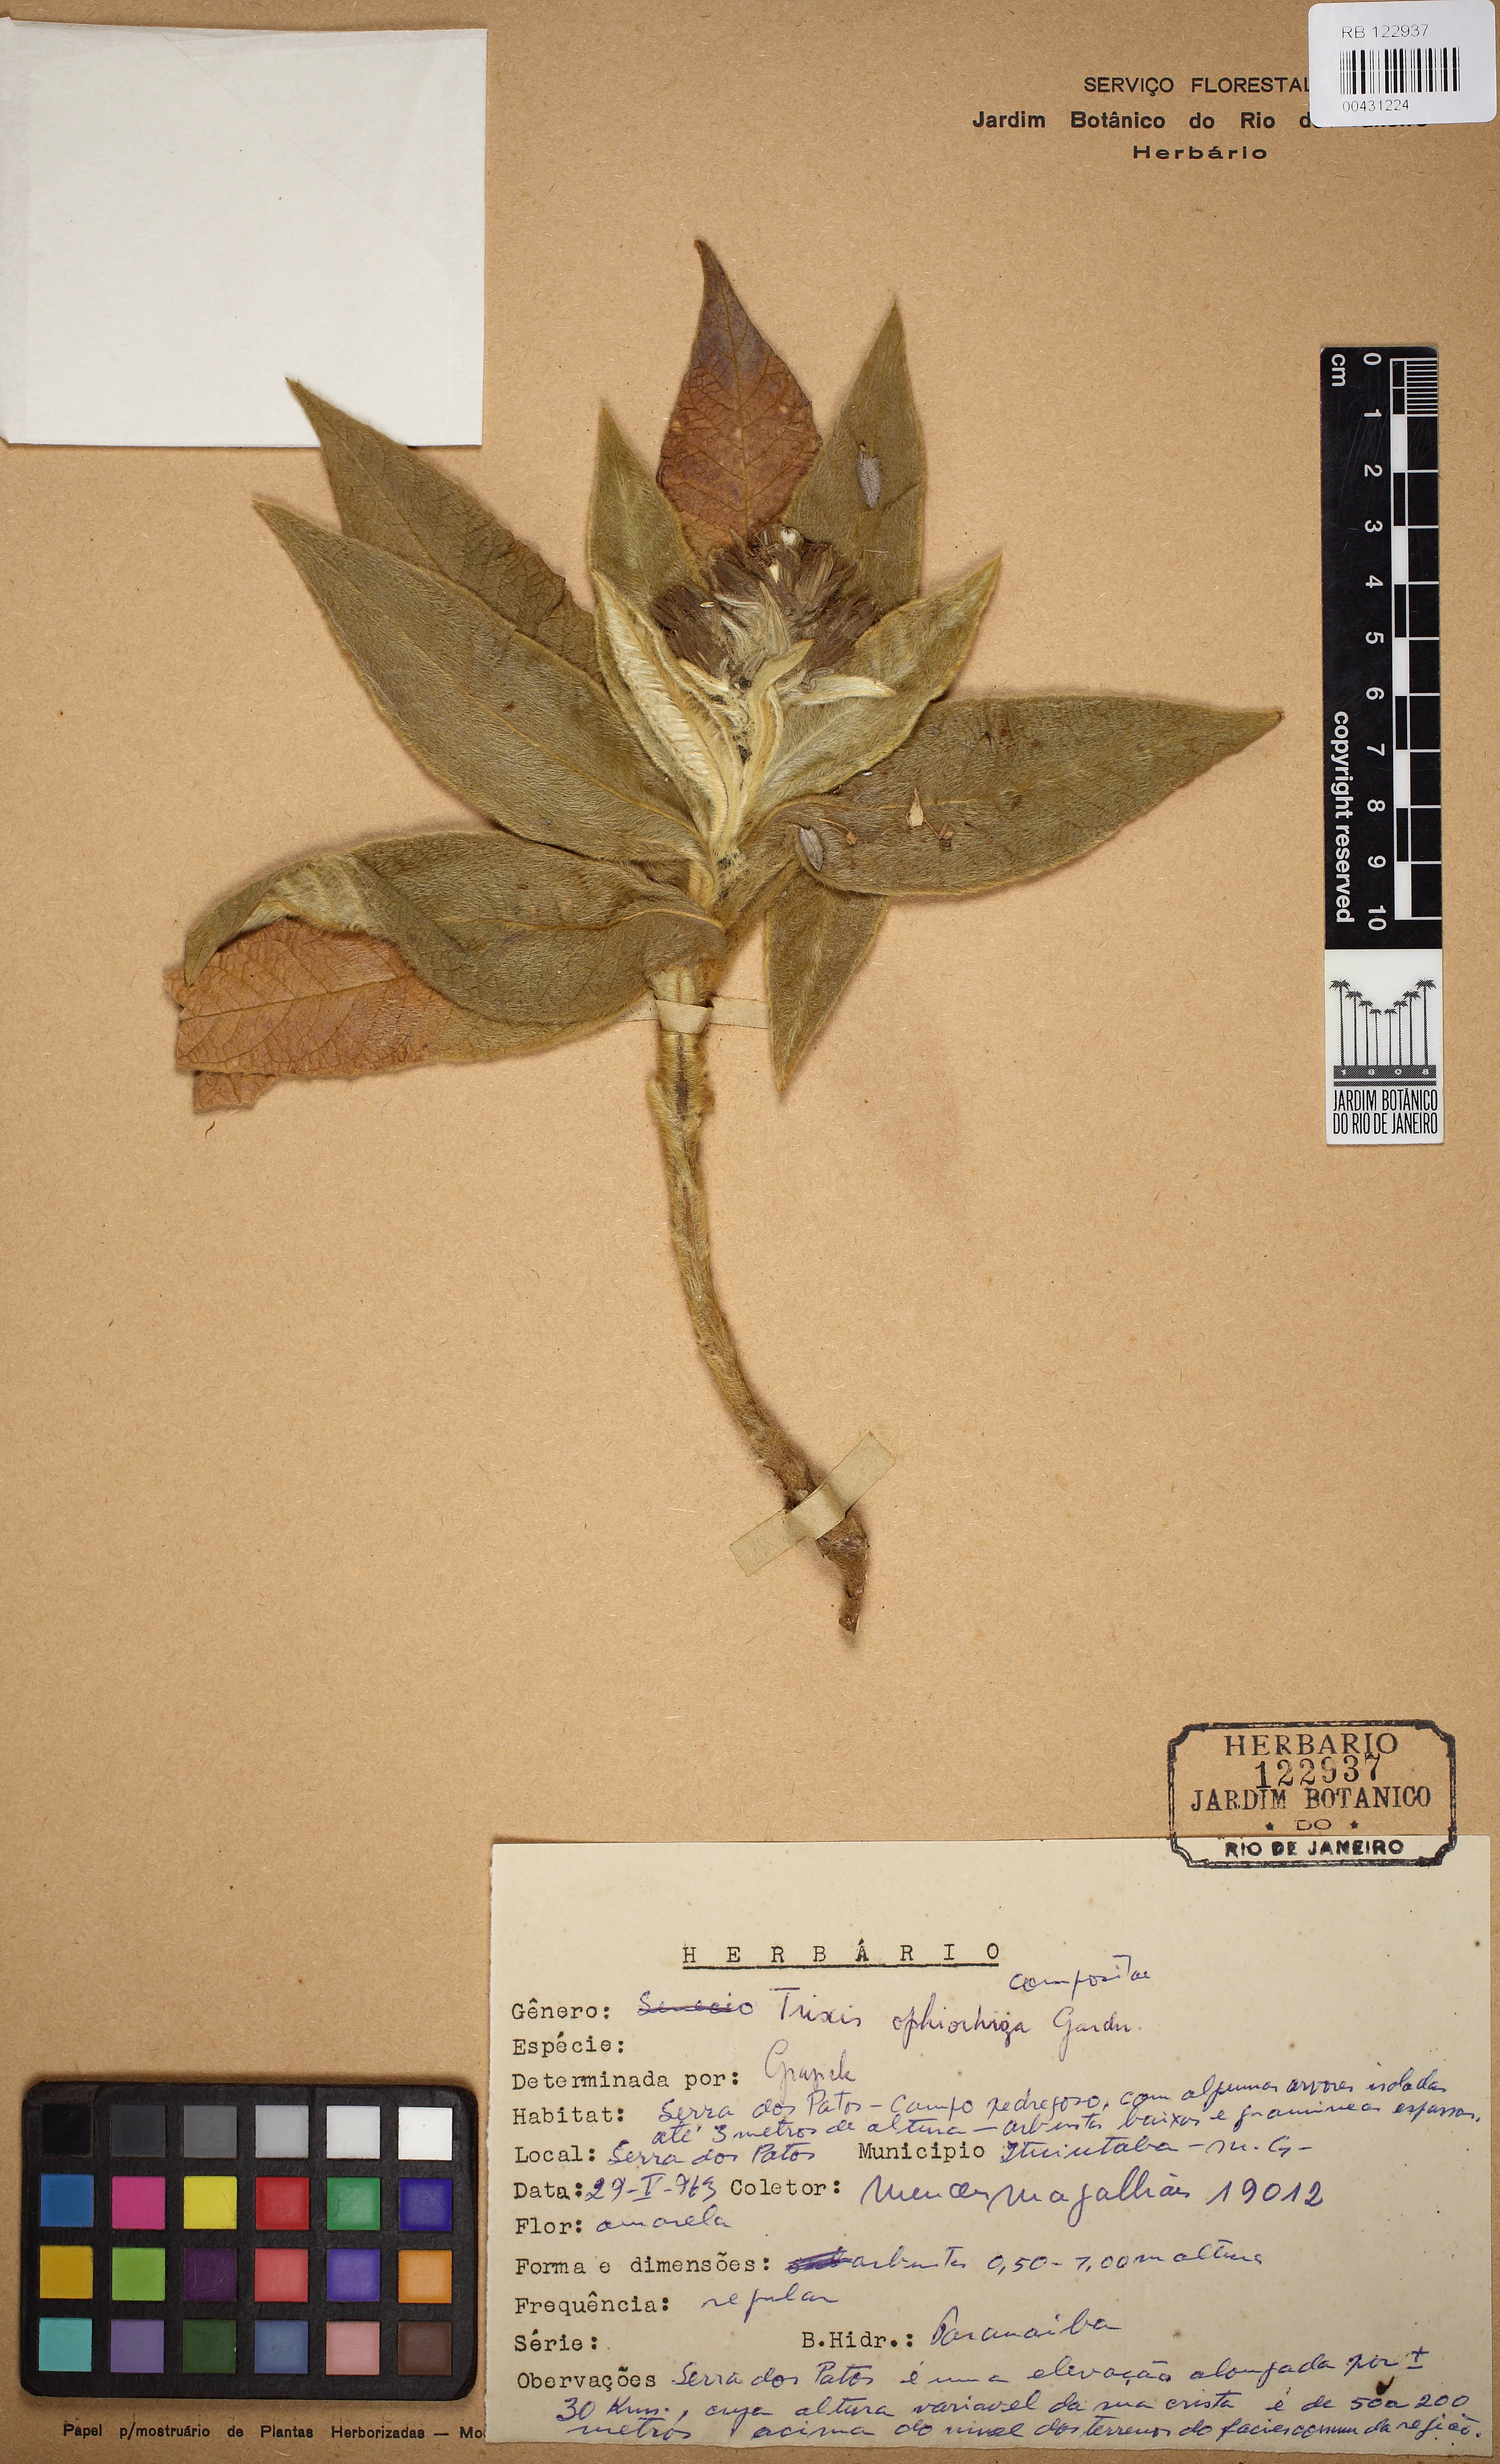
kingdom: Plantae
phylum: Tracheophyta
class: Magnoliopsida
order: Asterales
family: Asteraceae
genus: Trixis
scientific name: Trixis ophiorhiza
